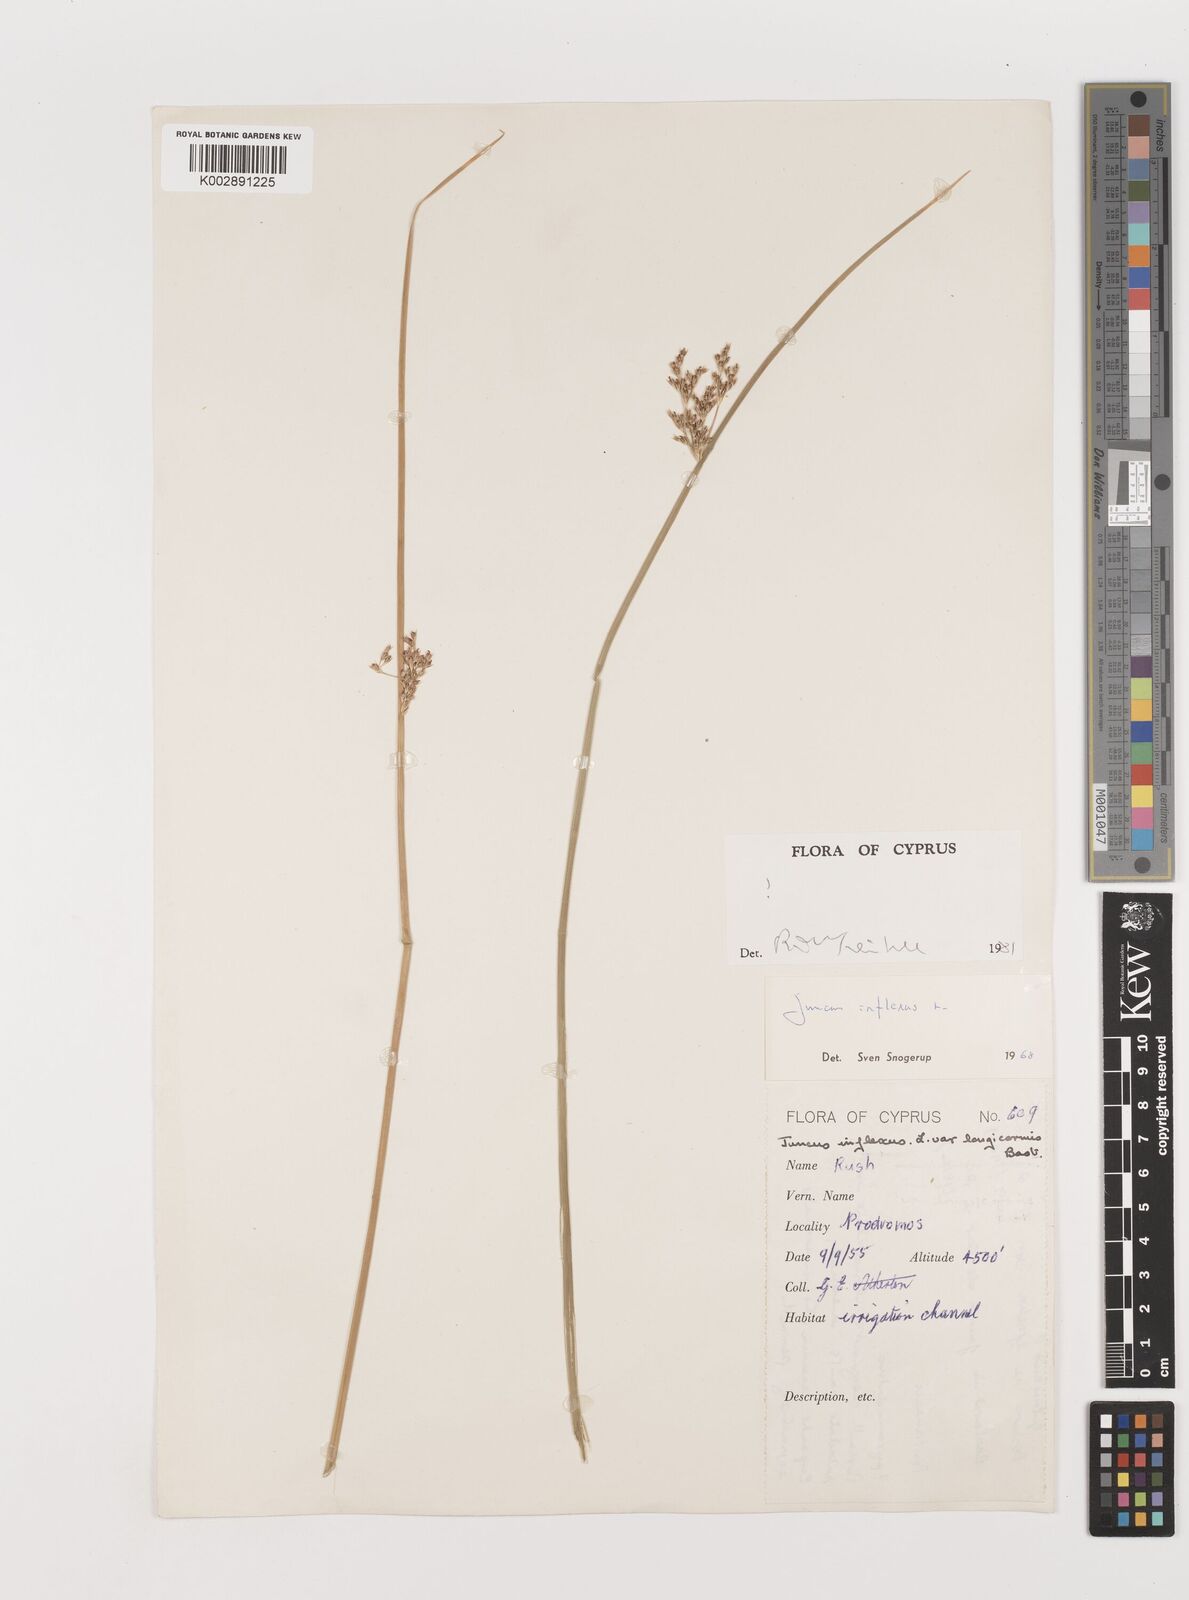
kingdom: Plantae
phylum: Tracheophyta
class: Liliopsida
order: Poales
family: Juncaceae
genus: Juncus
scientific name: Juncus inflexus
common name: Hard rush
